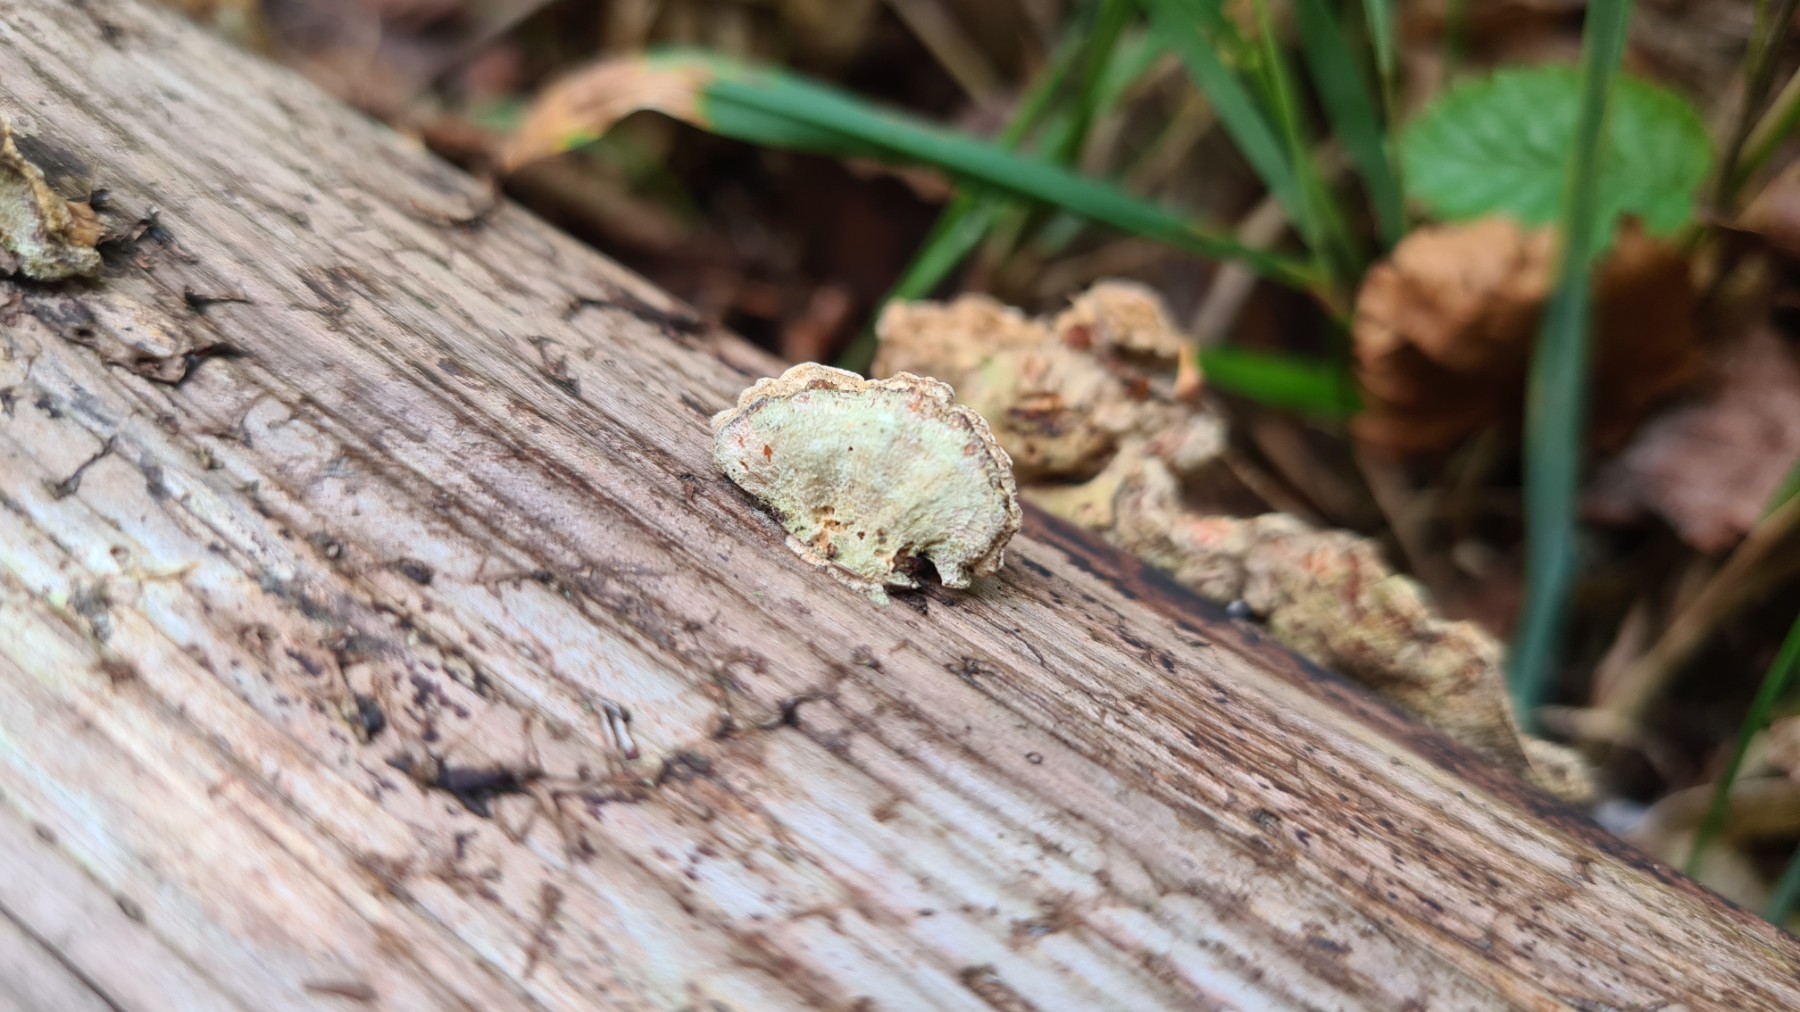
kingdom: Fungi
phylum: Basidiomycota
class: Agaricomycetes
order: Russulales
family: Stereaceae
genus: Stereum
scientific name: Stereum hirsutum
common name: håret lædersvamp
